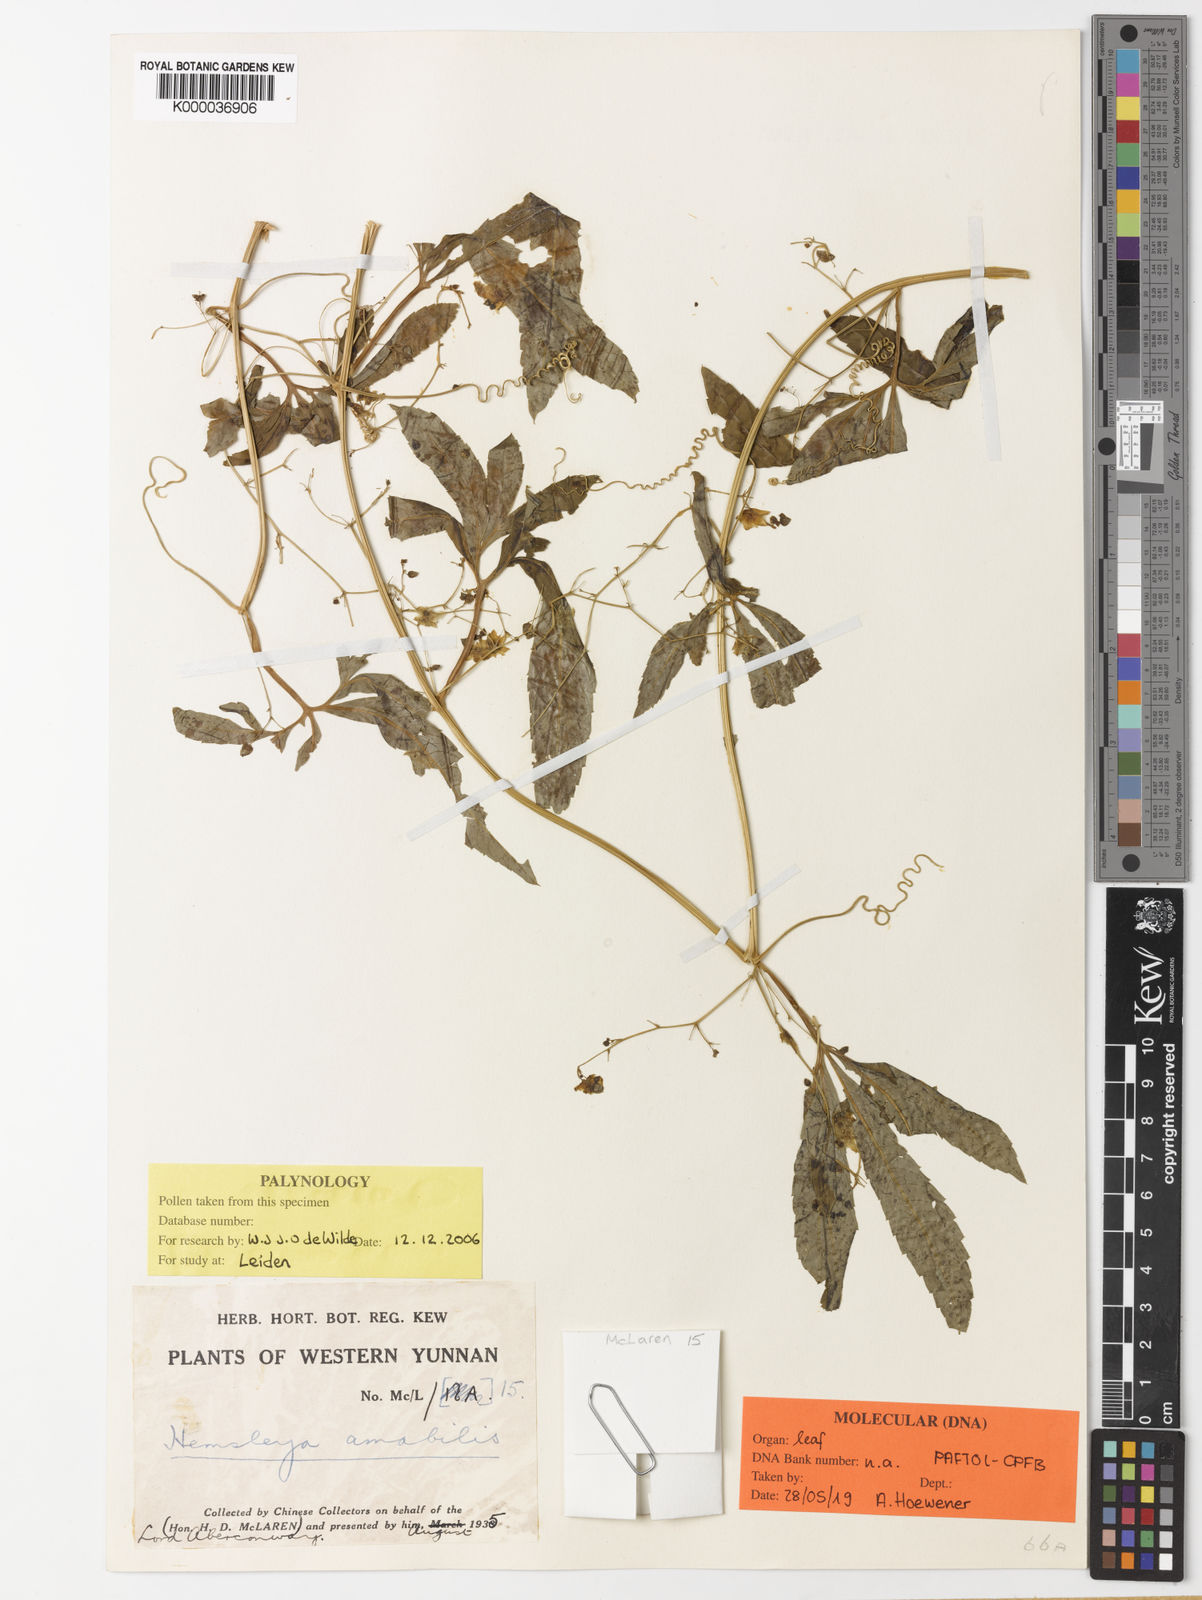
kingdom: Plantae
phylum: Tracheophyta
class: Magnoliopsida
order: Cucurbitales
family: Cucurbitaceae
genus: Hemsleya
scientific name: Hemsleya amabilis
